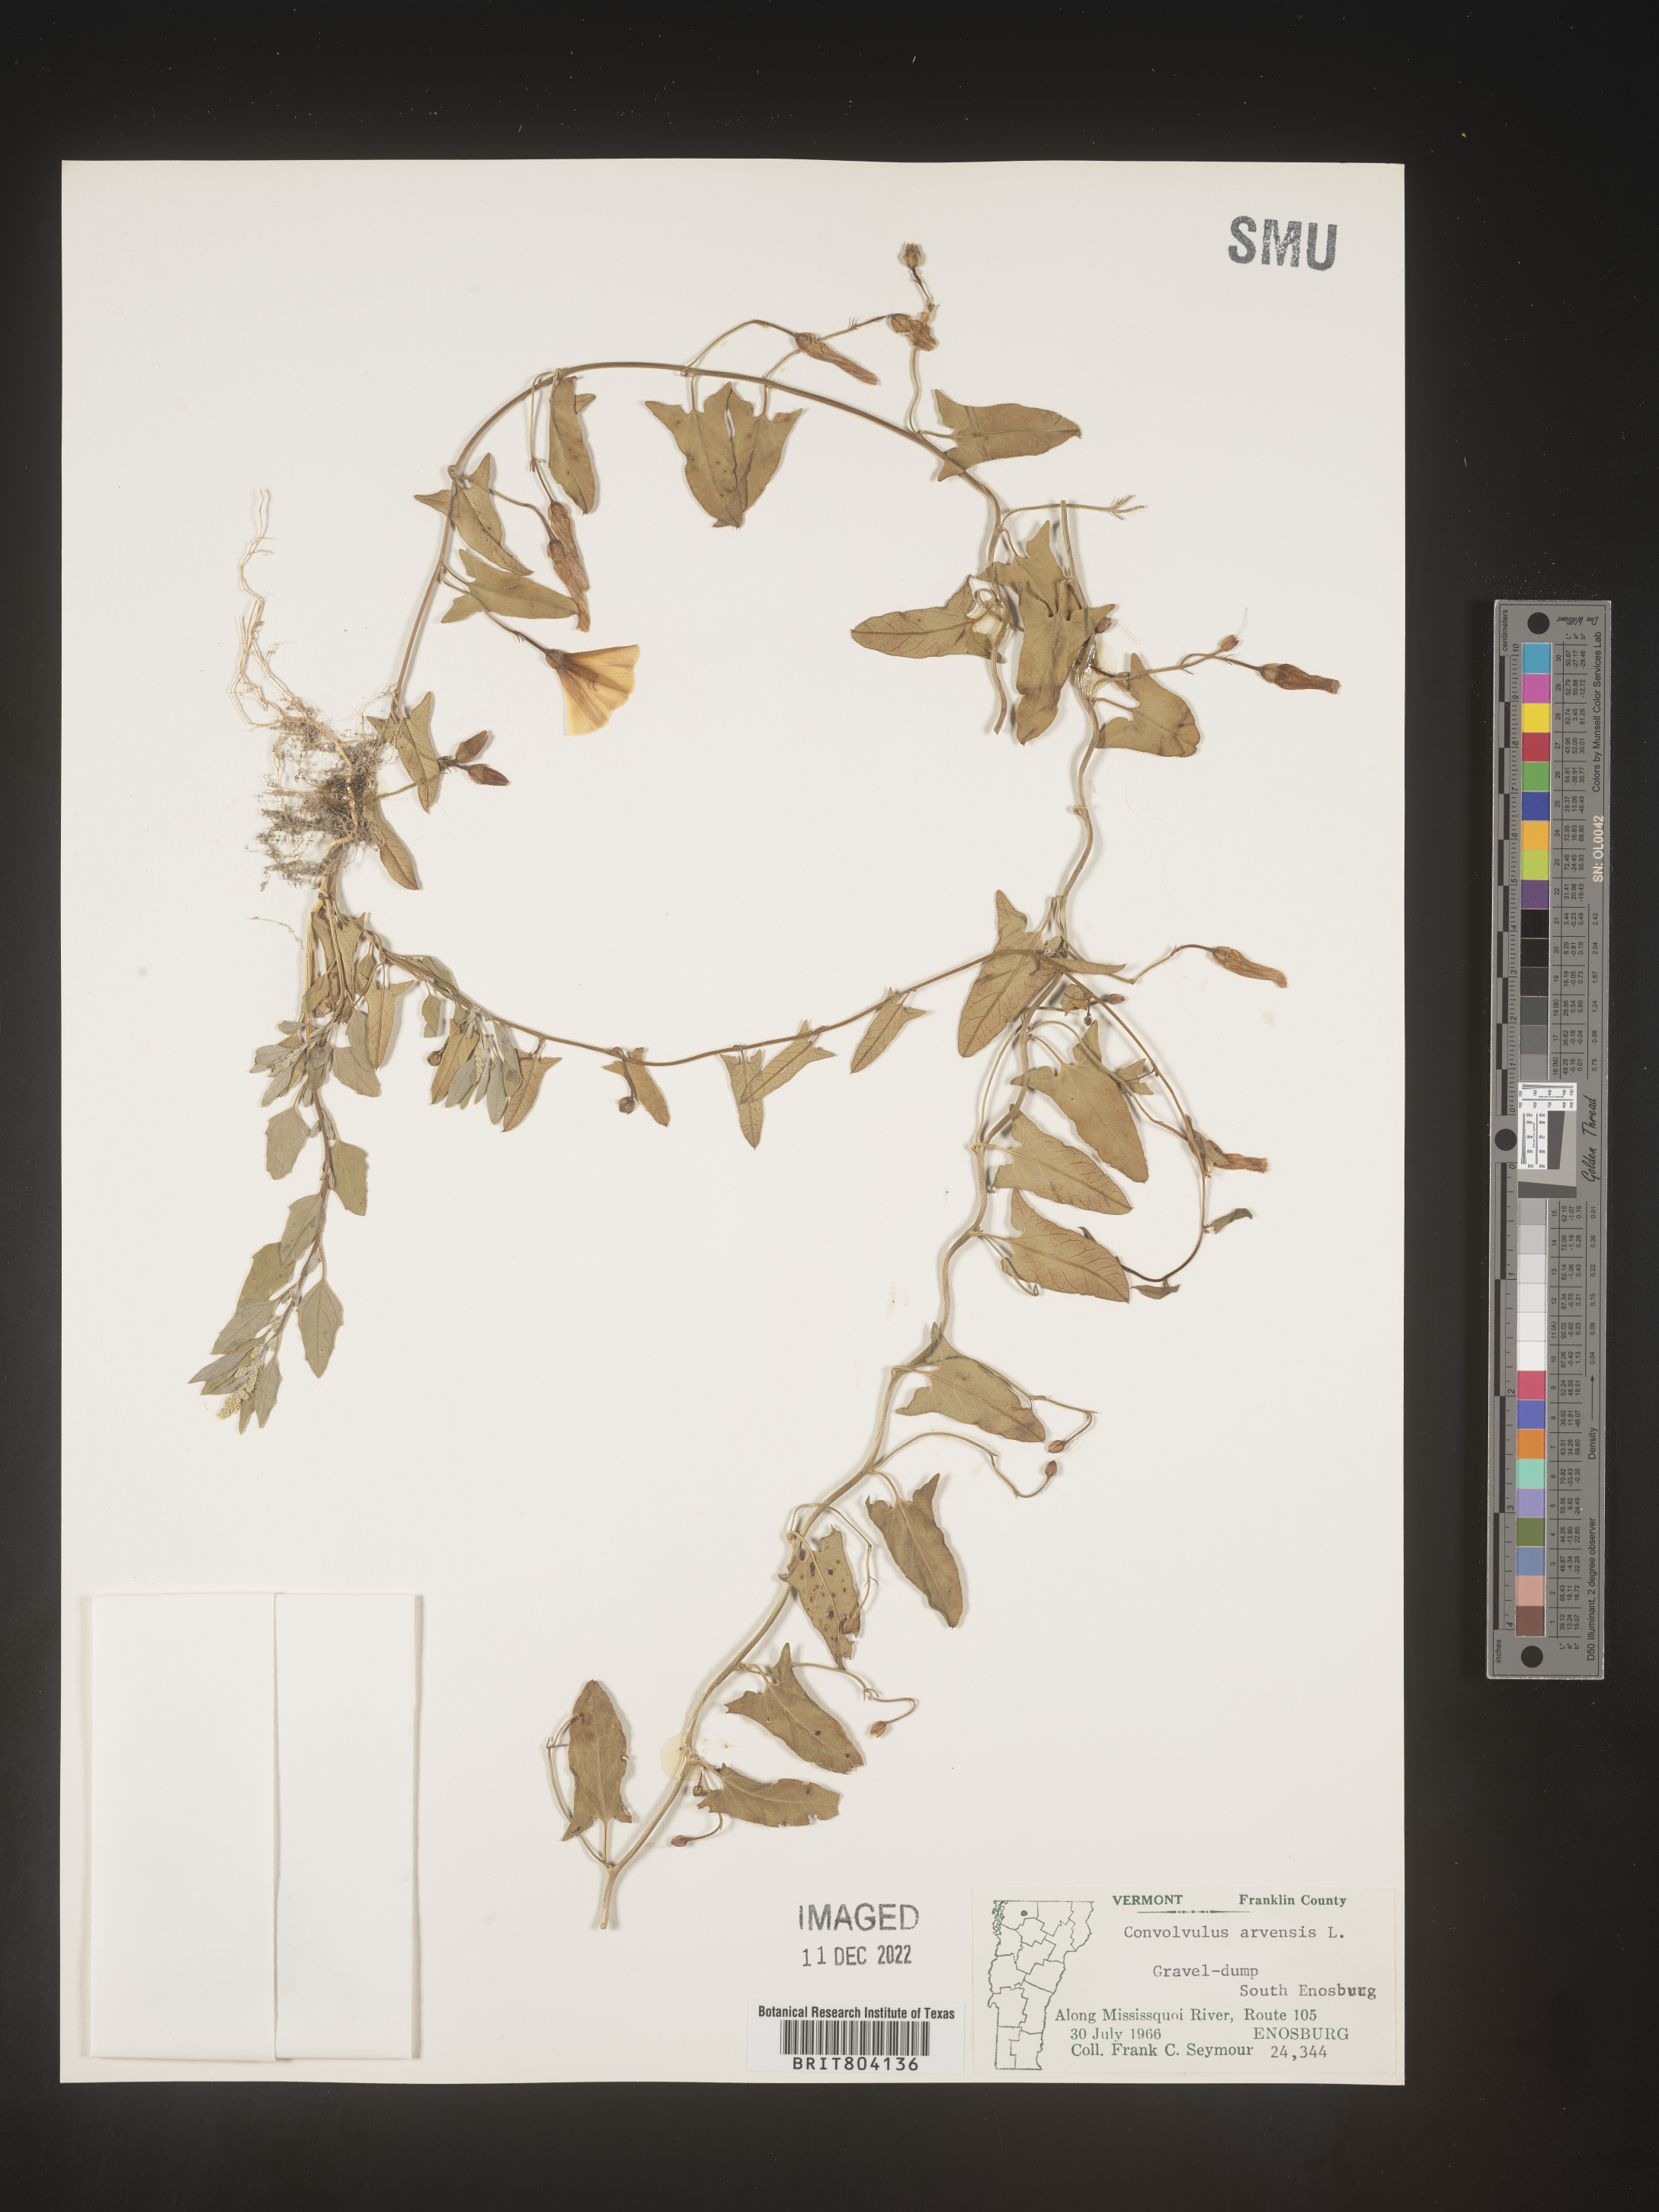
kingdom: Plantae
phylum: Tracheophyta
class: Magnoliopsida
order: Solanales
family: Convolvulaceae
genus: Convolvulus
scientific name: Convolvulus arvensis
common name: Field bindweed
